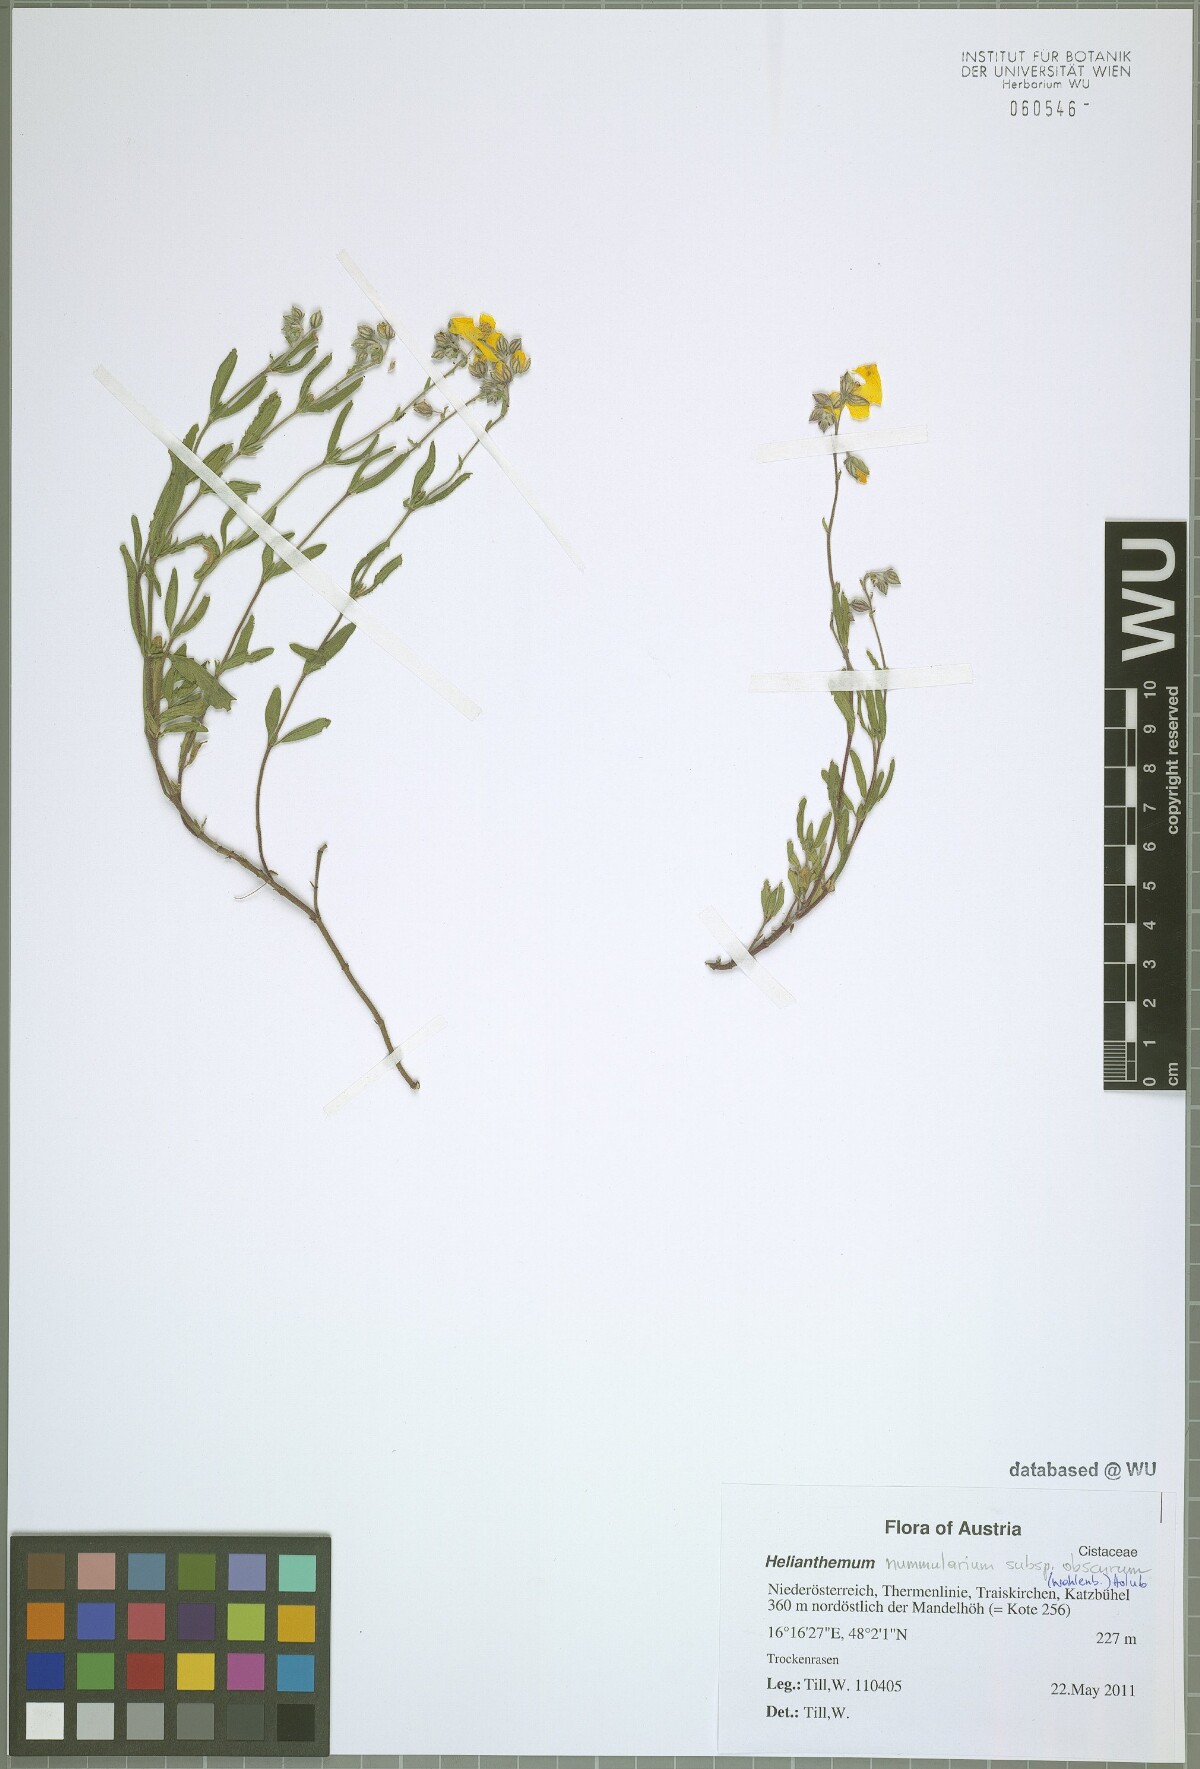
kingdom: Plantae
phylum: Tracheophyta
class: Magnoliopsida
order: Malvales
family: Cistaceae
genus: Helianthemum
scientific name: Helianthemum nummularium
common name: Common rock-rose
